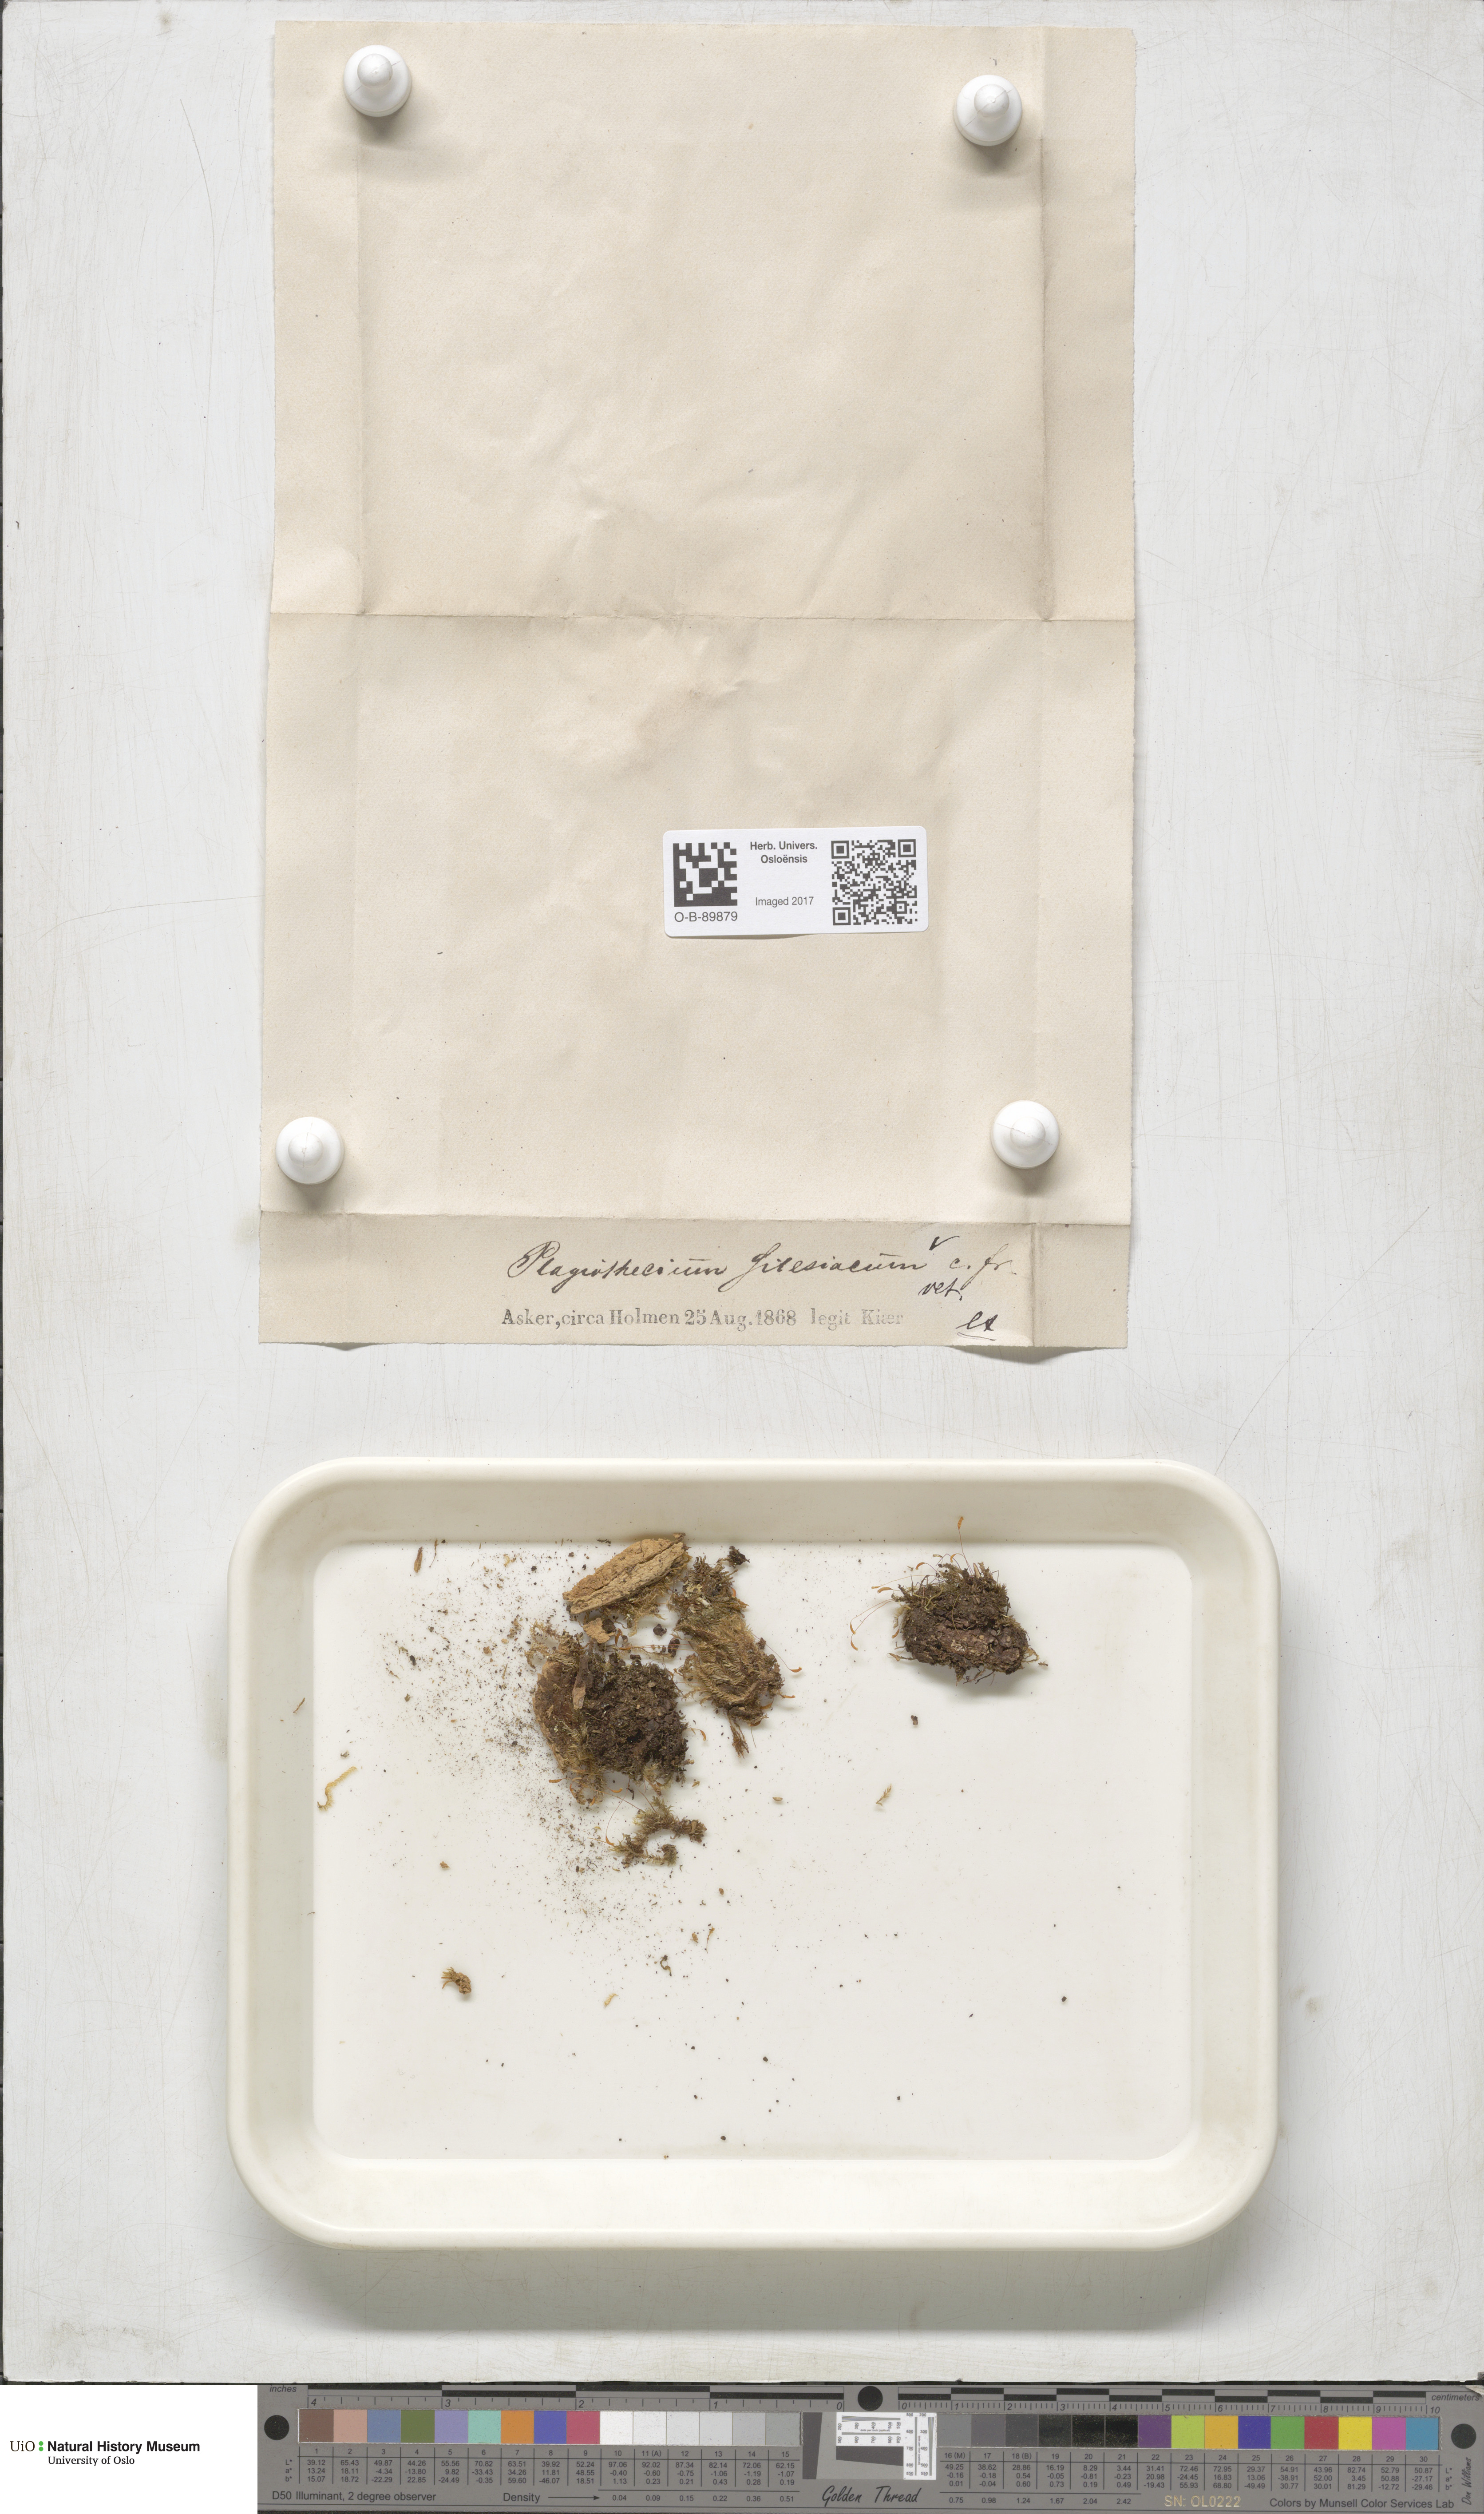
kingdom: Plantae
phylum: Bryophyta
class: Bryopsida
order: Hypnales
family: Plagiotheciaceae
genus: Herzogiella
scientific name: Herzogiella seligeri
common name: Silesian feather-moss
